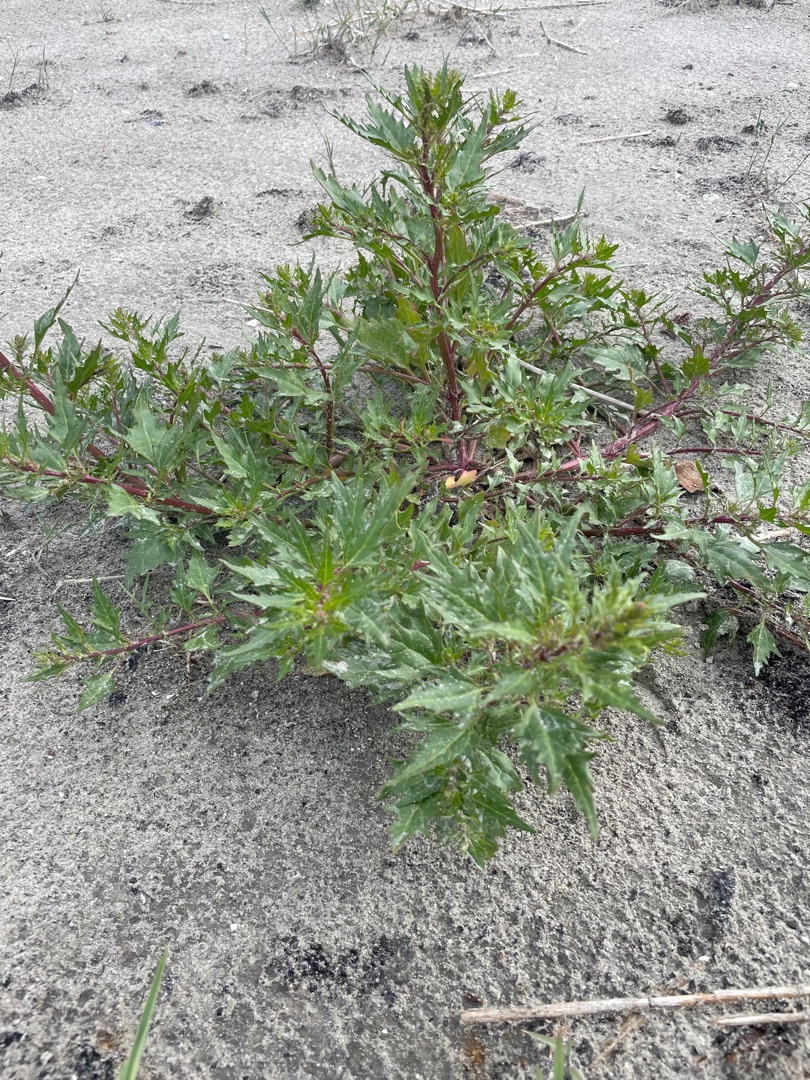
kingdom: Plantae
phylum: Tracheophyta
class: Magnoliopsida
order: Caryophyllales
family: Amaranthaceae
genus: Oxybasis
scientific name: Oxybasis rubra
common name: Rød gåsefod
